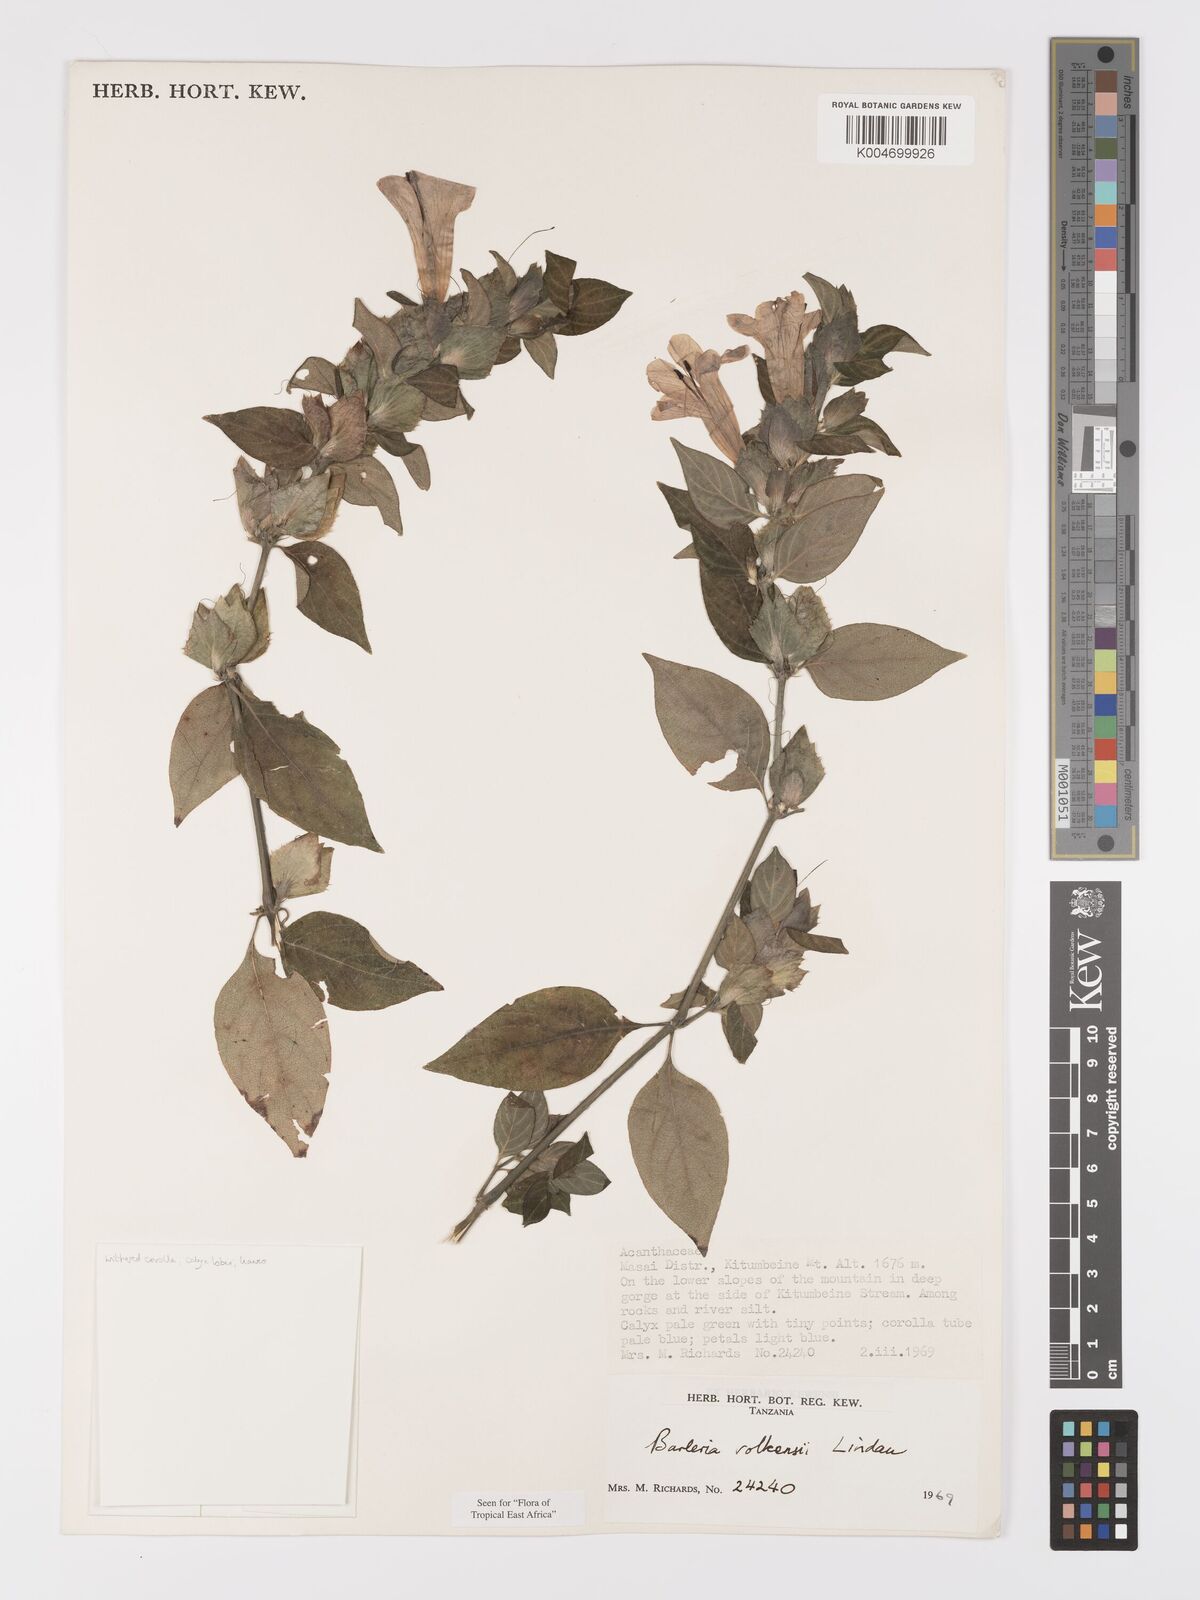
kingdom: Plantae
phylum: Tracheophyta
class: Magnoliopsida
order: Lamiales
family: Acanthaceae
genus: Barleria
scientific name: Barleria volkensii
